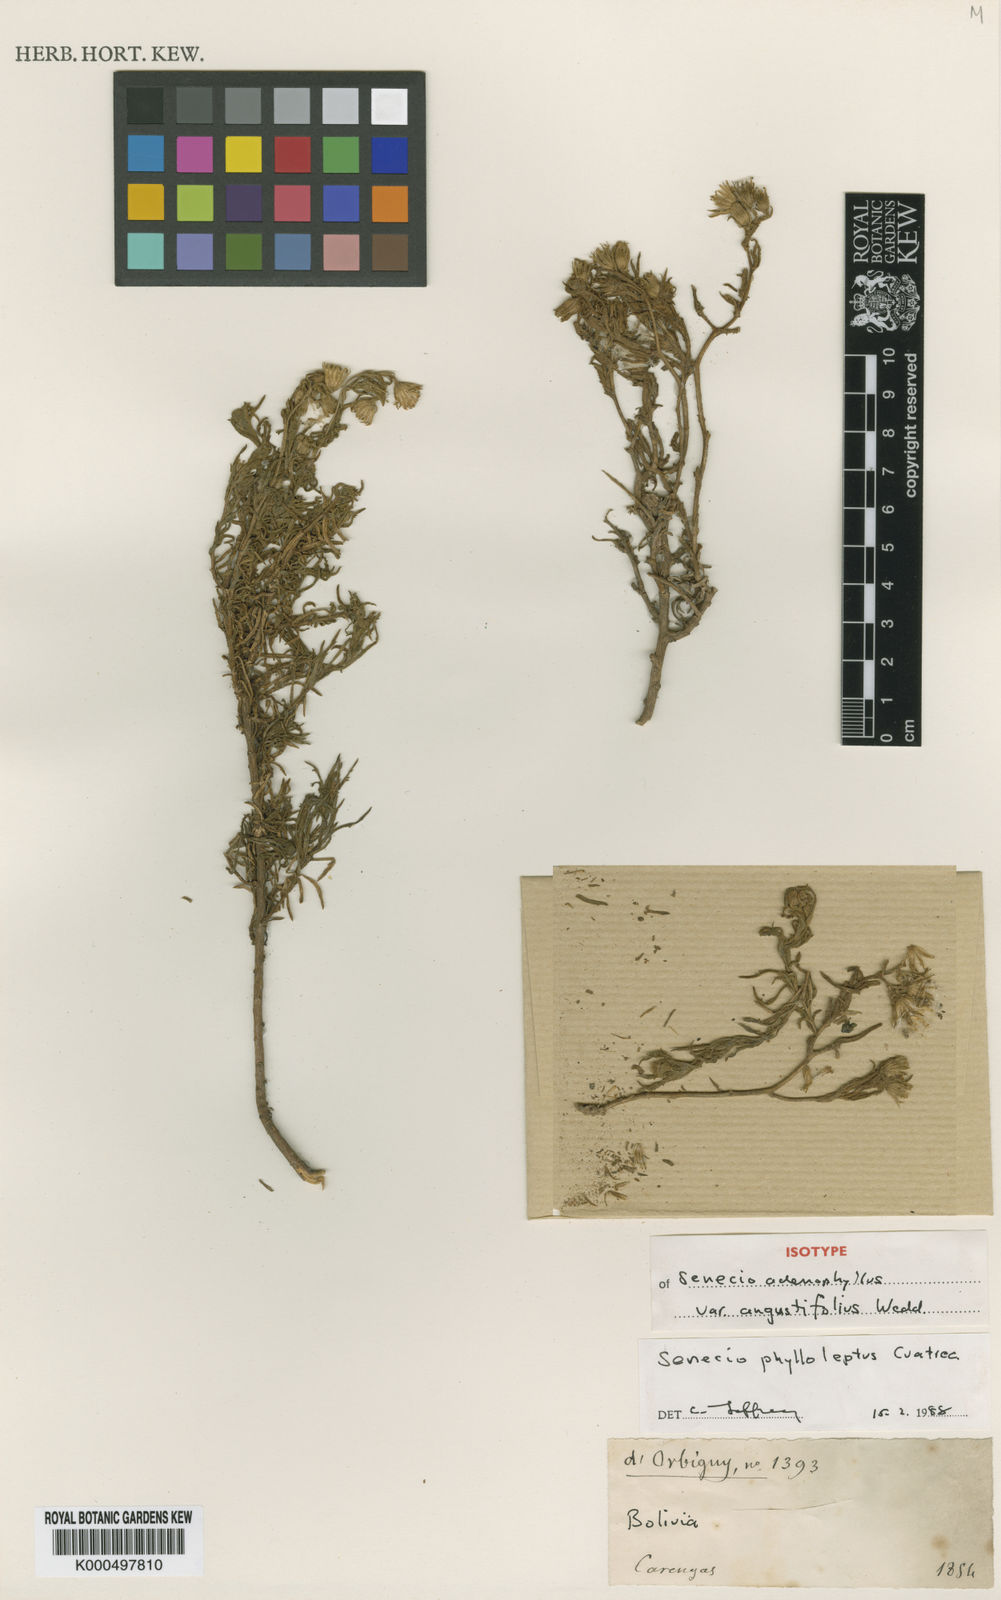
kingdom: Plantae
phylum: Tracheophyta
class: Magnoliopsida
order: Asterales
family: Asteraceae
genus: Senecio
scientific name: Senecio phylloleptus
